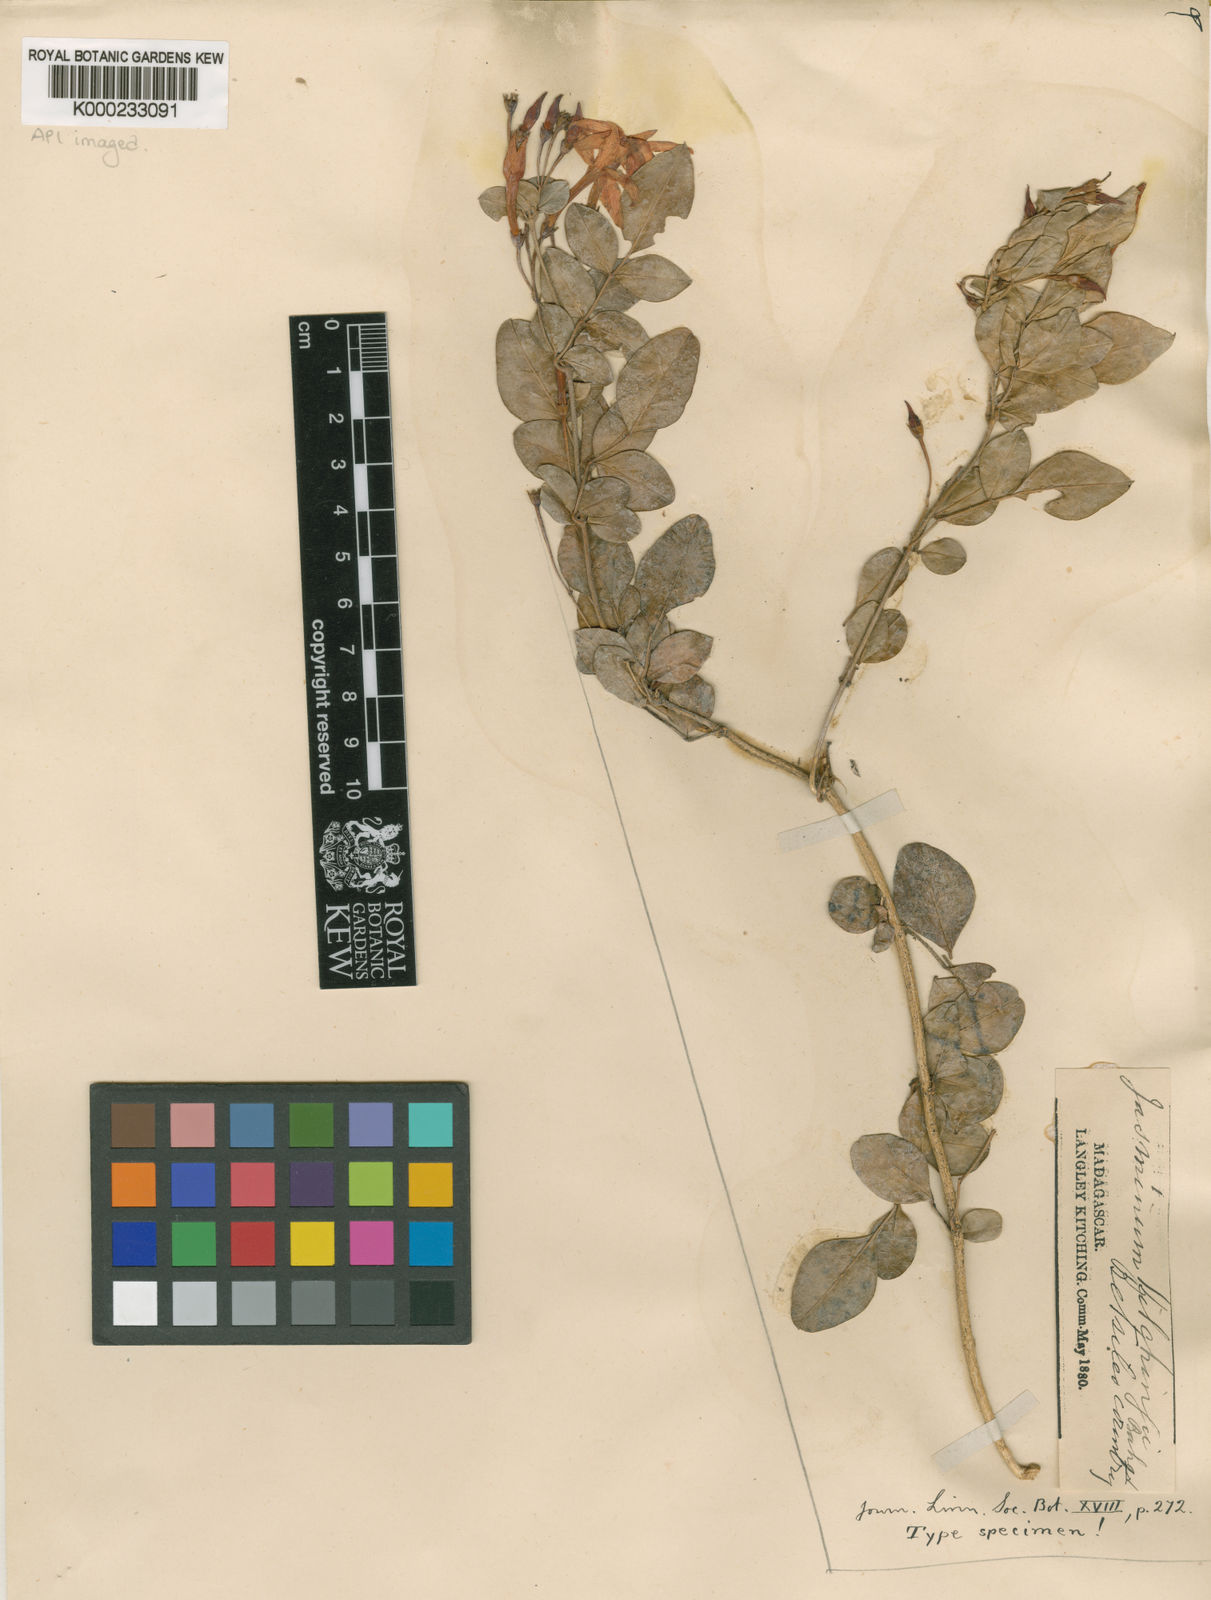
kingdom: Plantae
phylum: Tracheophyta
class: Magnoliopsida
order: Lamiales
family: Oleaceae
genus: Jasminum
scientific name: Jasminum kitchingii
